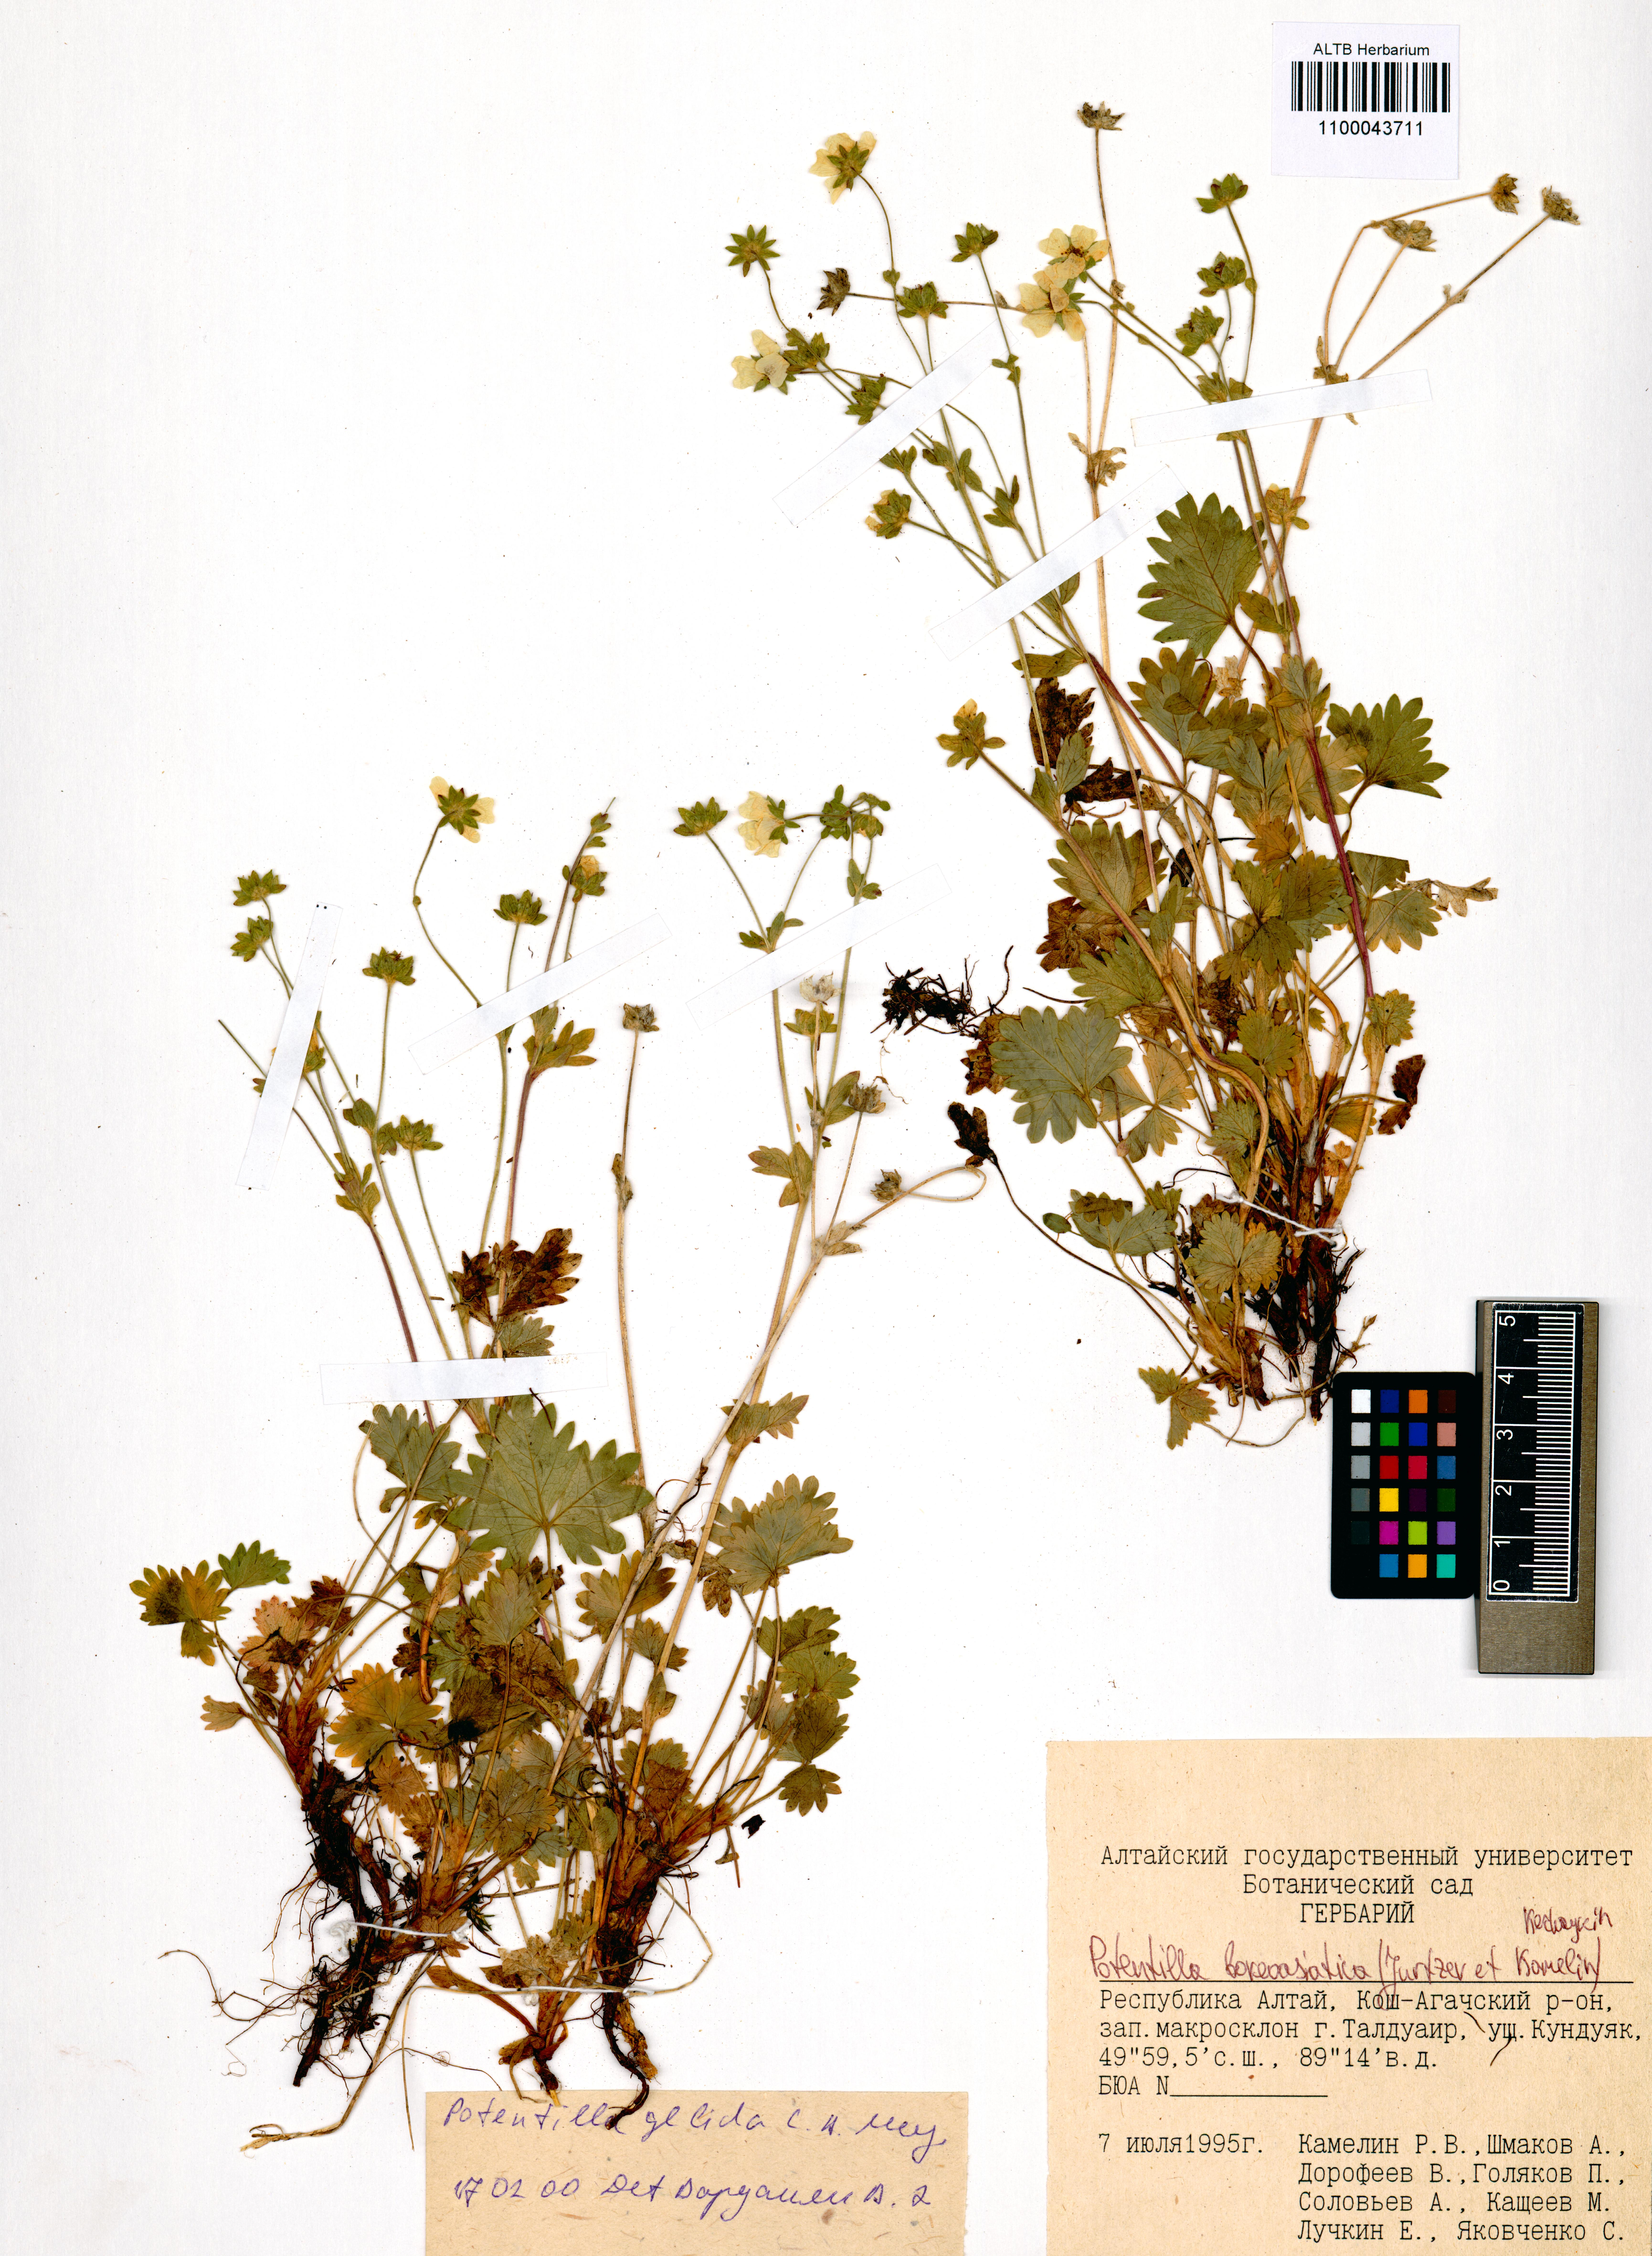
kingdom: Plantae
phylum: Tracheophyta
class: Magnoliopsida
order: Rosales
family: Rosaceae
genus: Potentilla
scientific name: Potentilla
